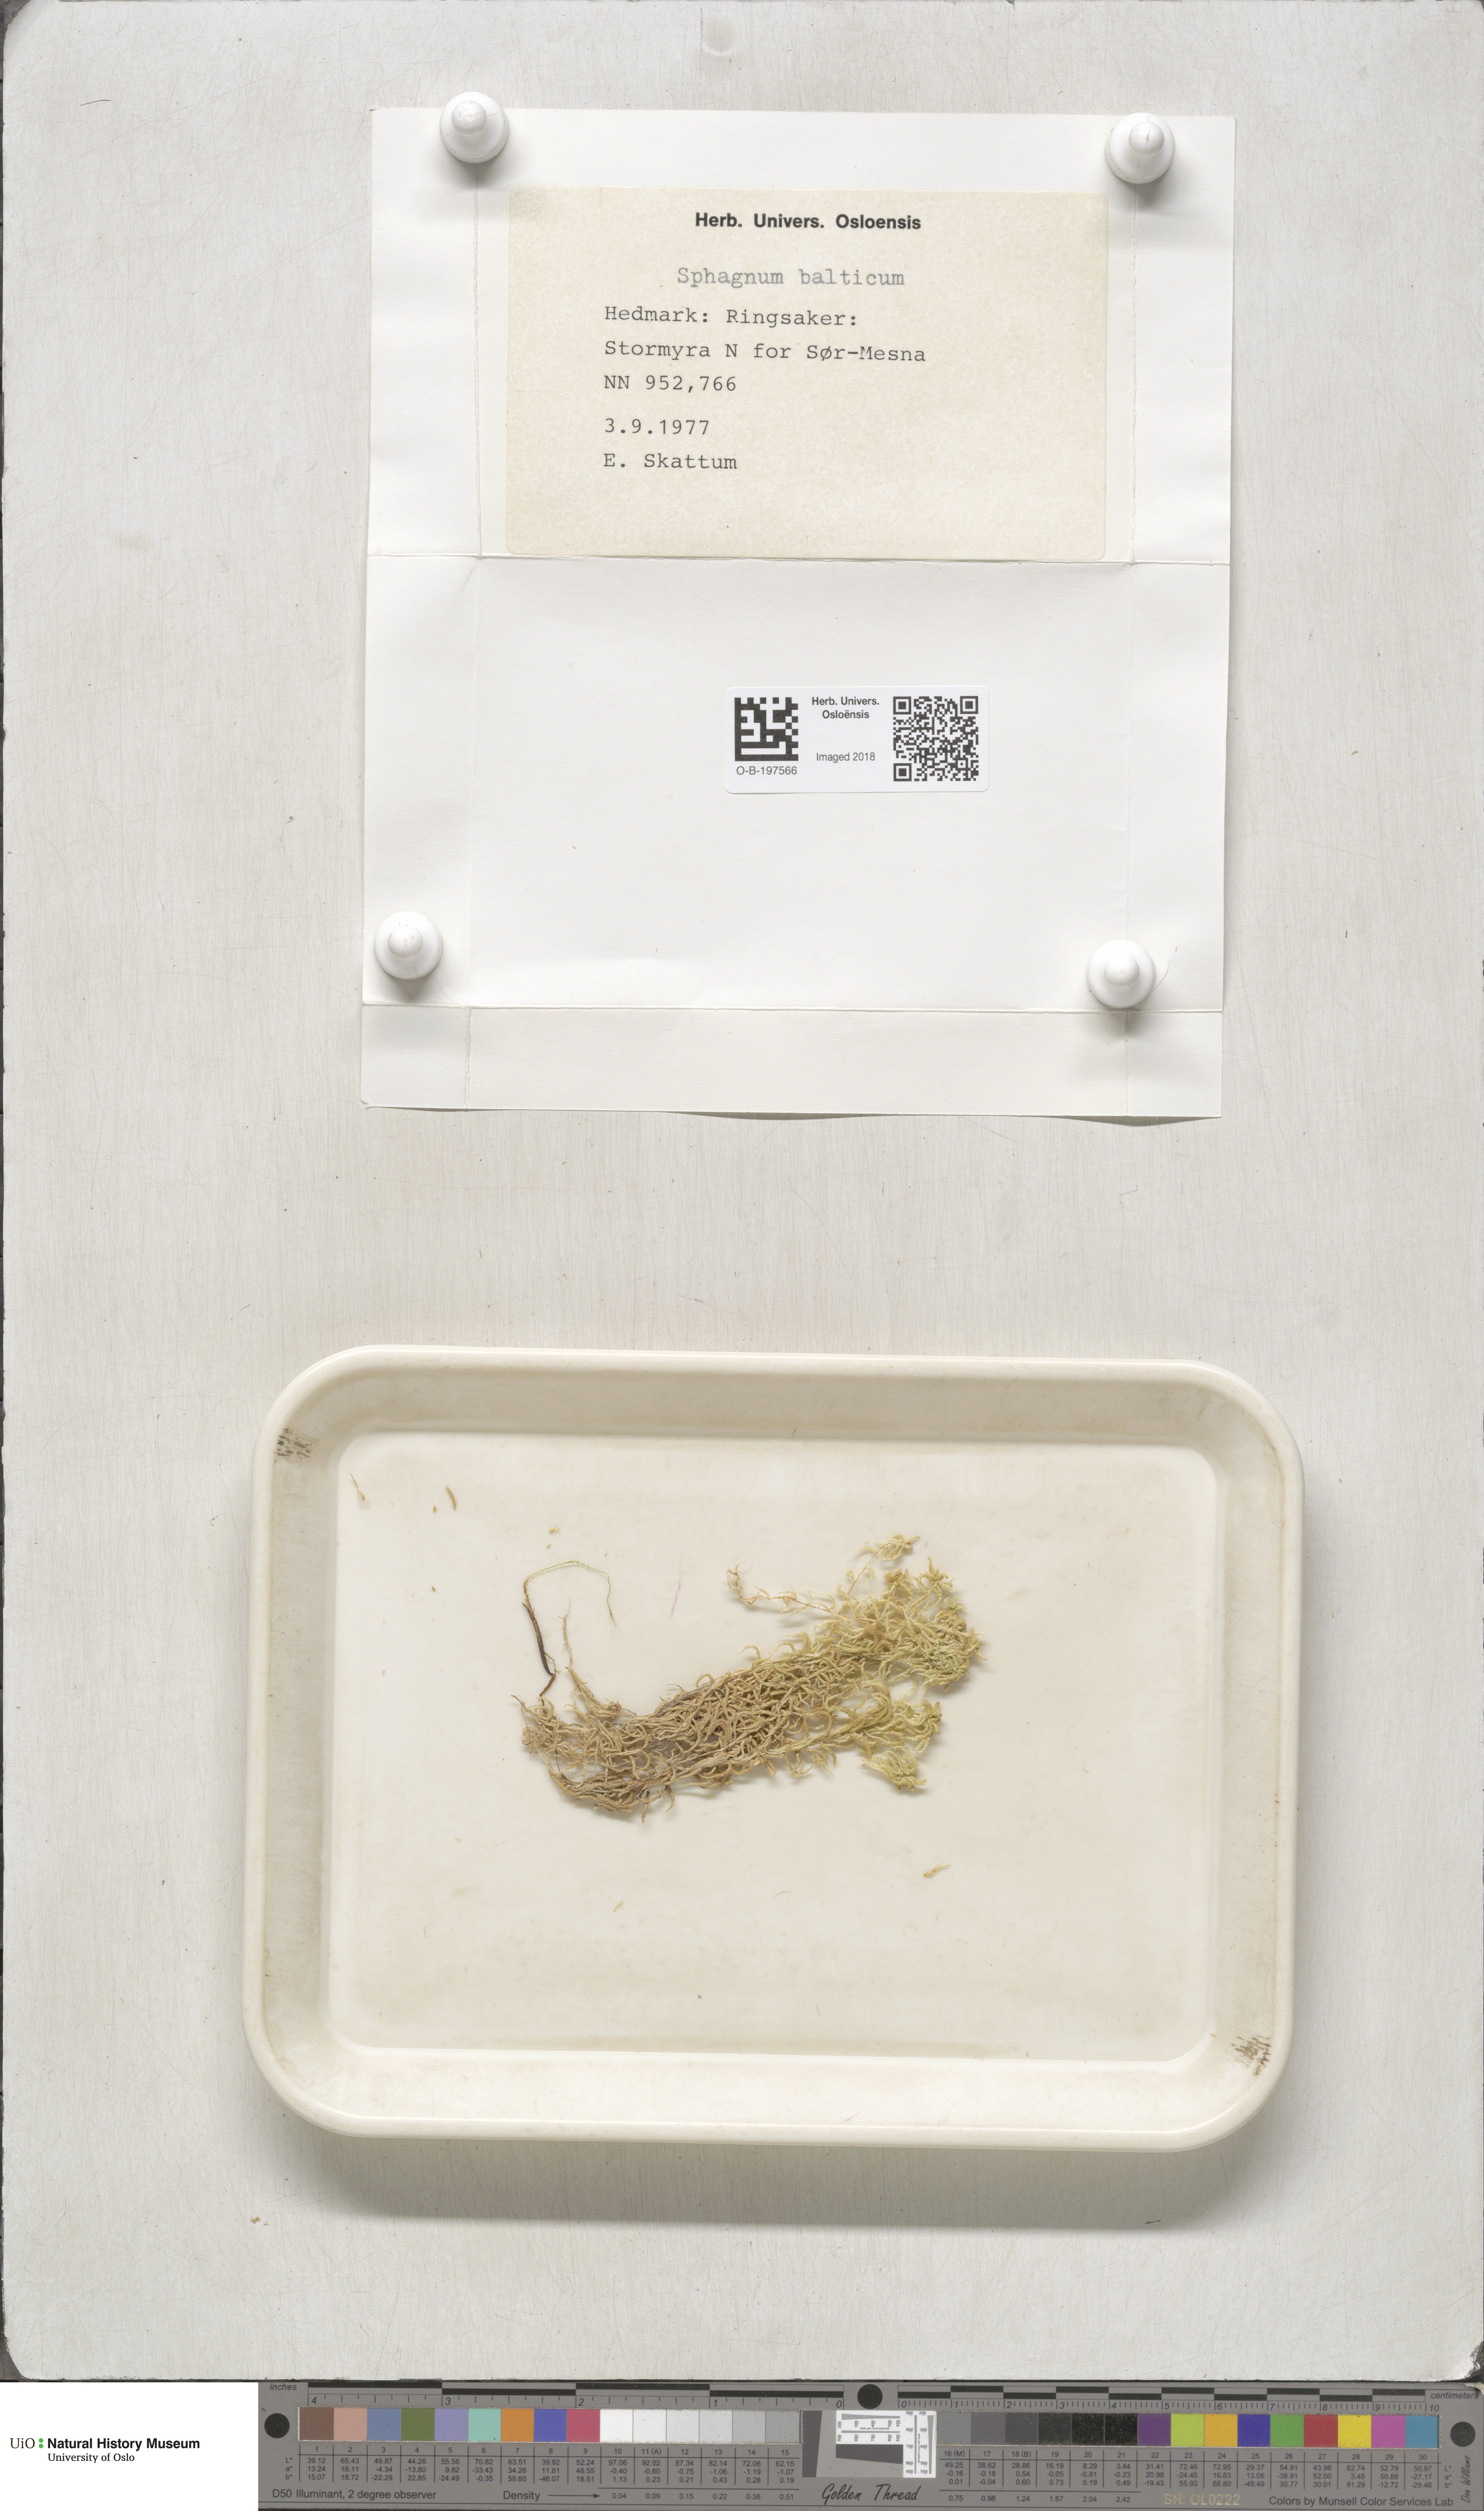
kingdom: Plantae
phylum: Bryophyta
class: Sphagnopsida
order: Sphagnales
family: Sphagnaceae
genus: Sphagnum
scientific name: Sphagnum balticum
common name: Baltic bog-moss
